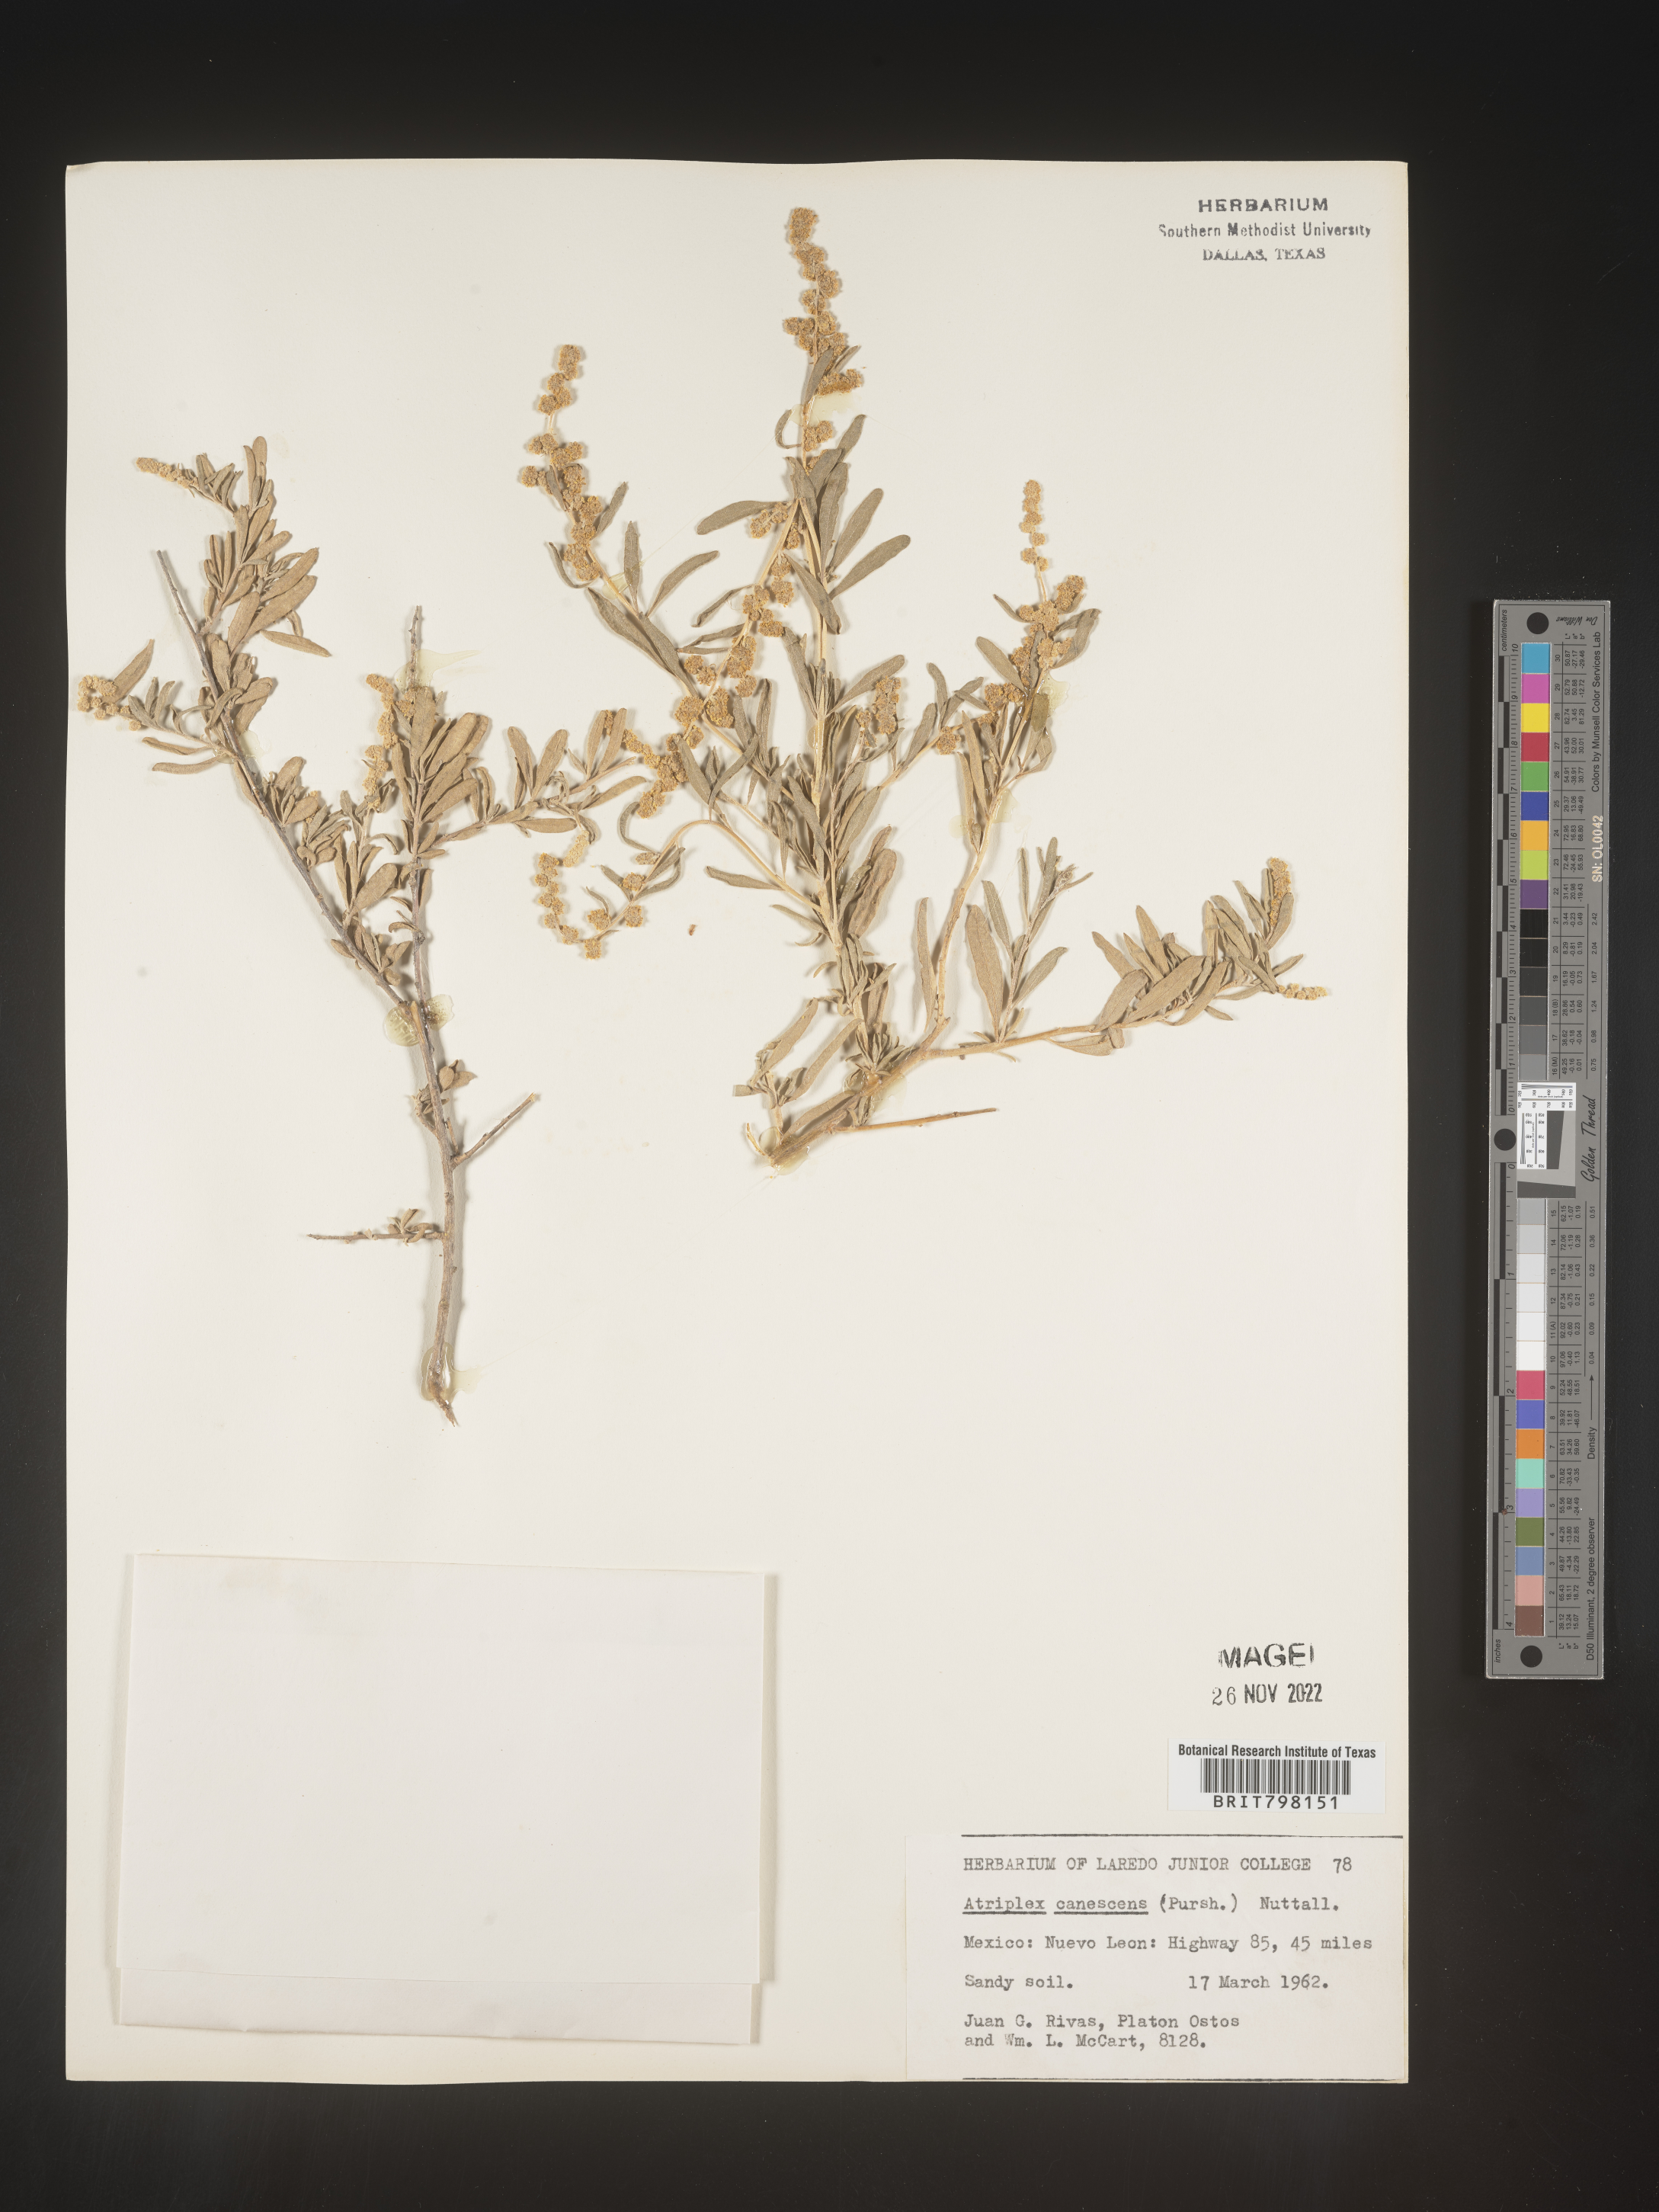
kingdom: Plantae
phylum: Tracheophyta
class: Magnoliopsida
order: Caryophyllales
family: Amaranthaceae
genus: Atriplex
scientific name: Atriplex canescens
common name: Four-wing saltbush
